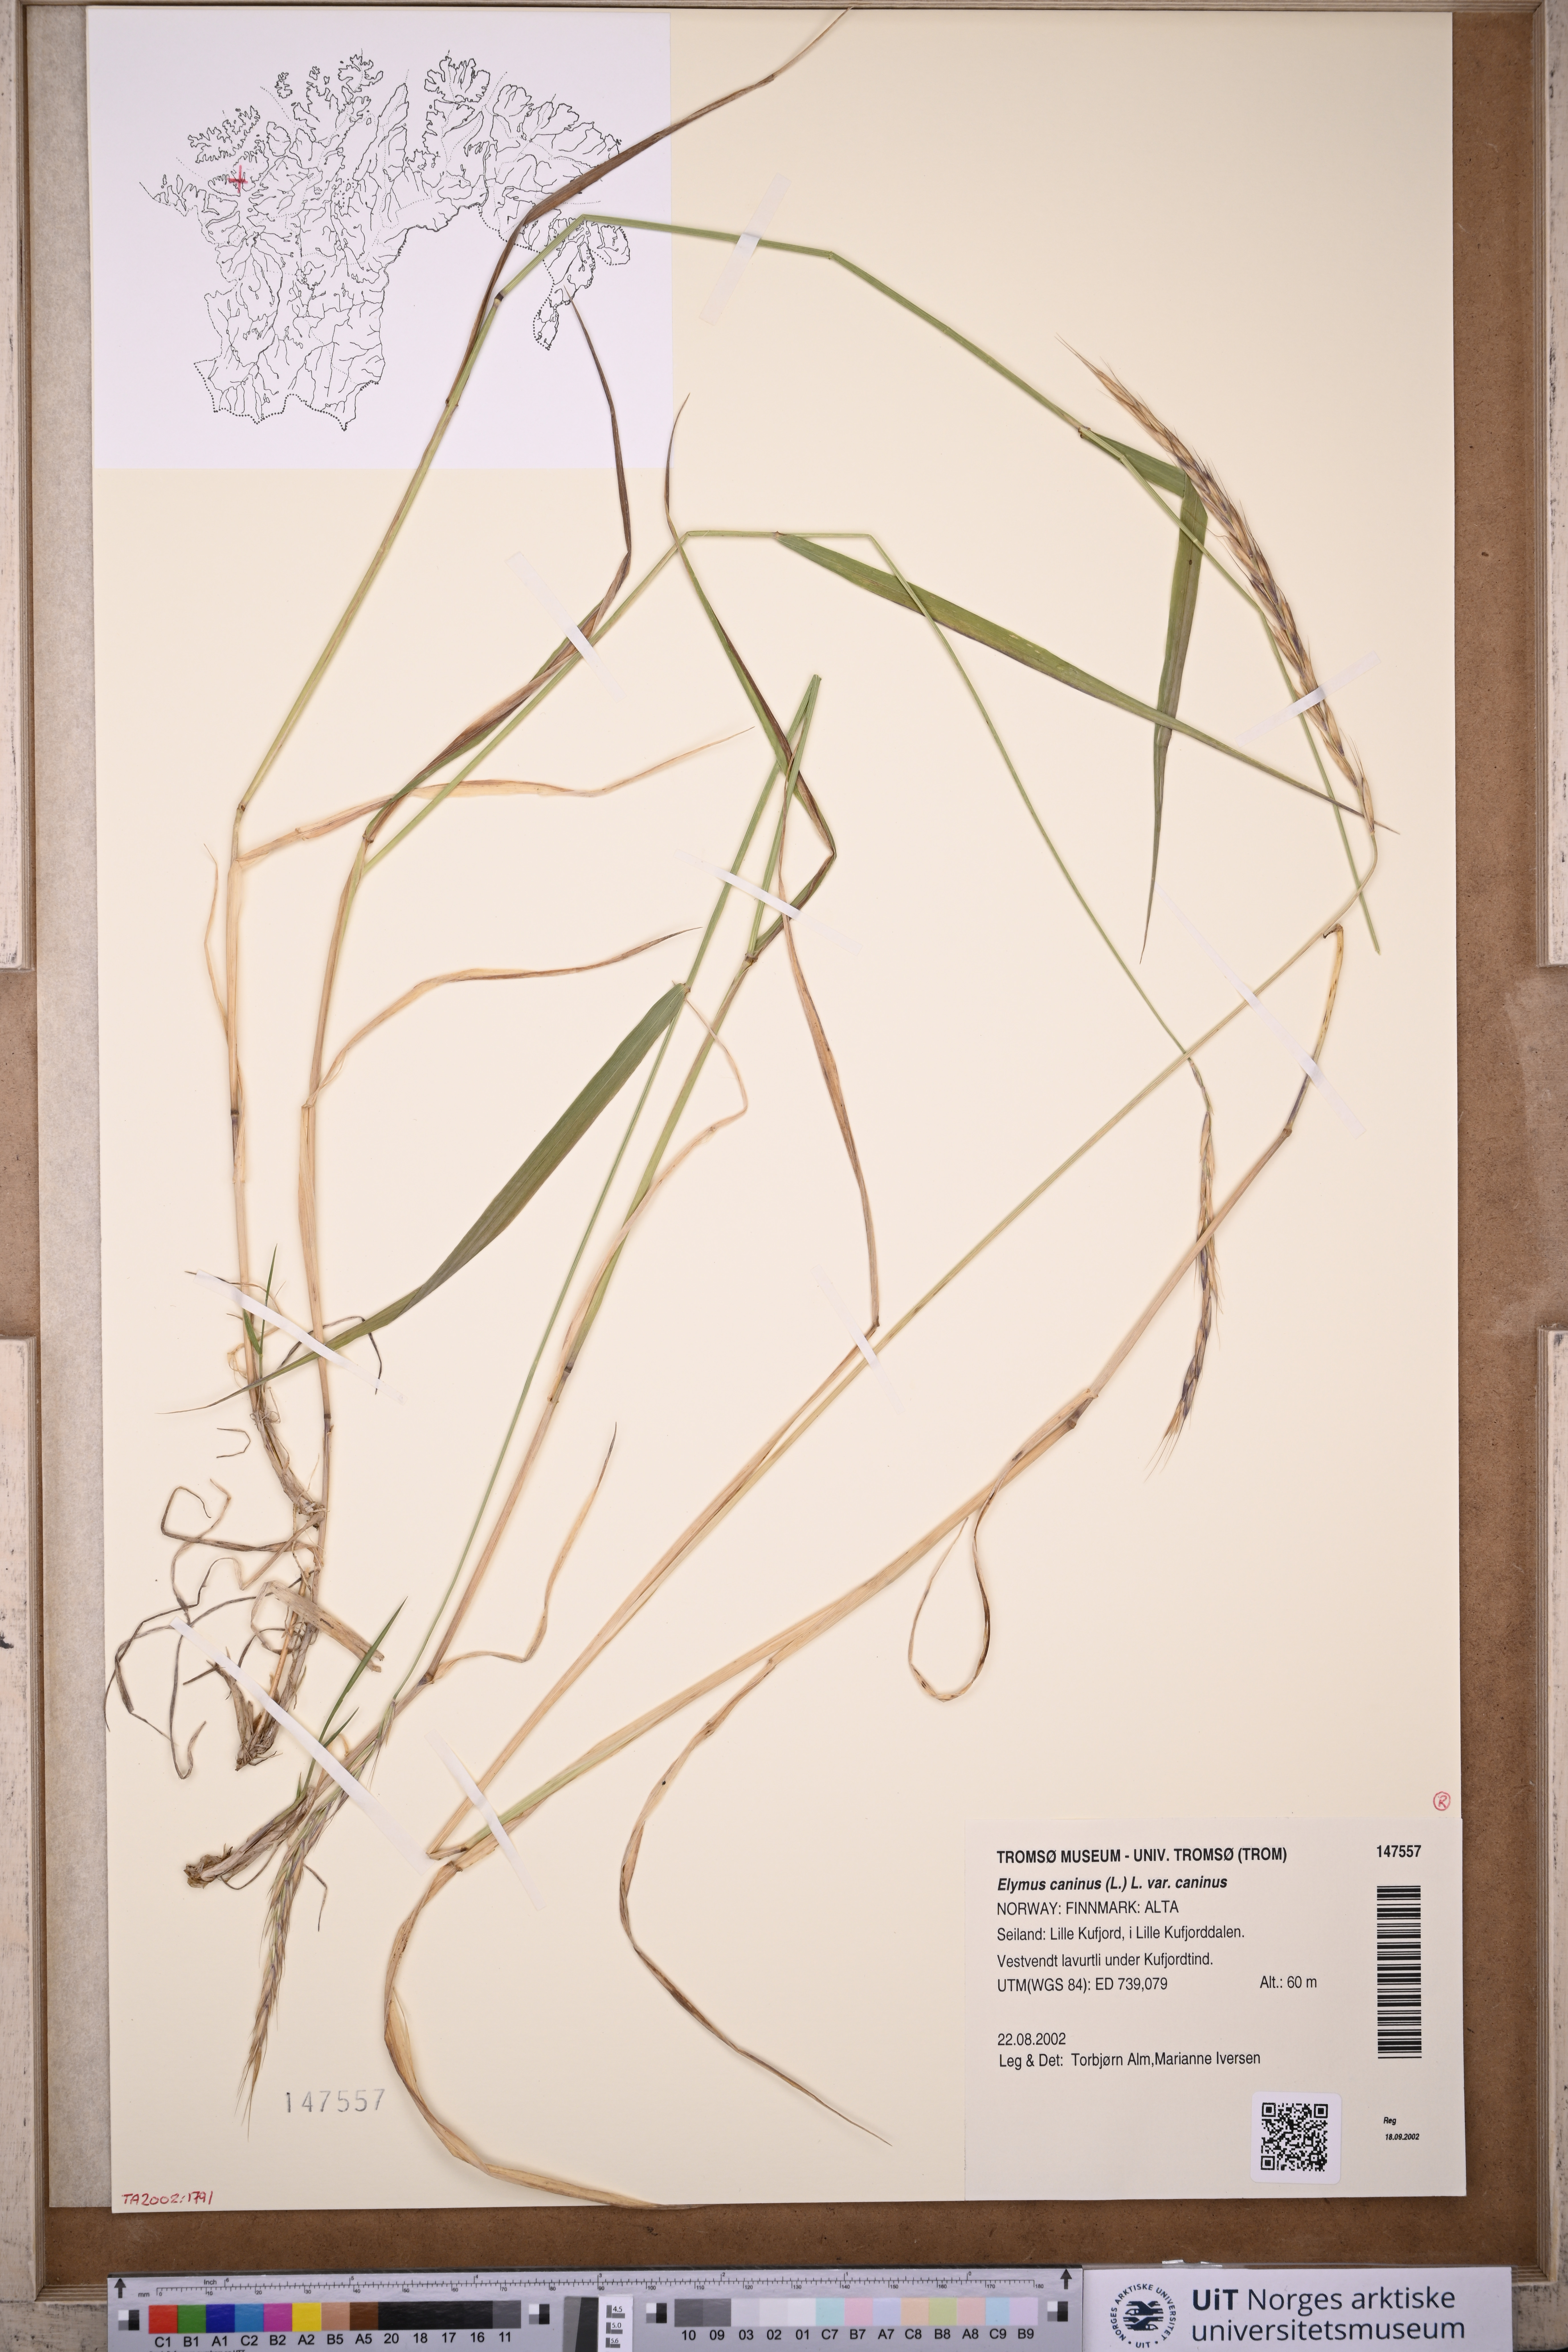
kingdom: Plantae
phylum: Tracheophyta
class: Liliopsida
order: Poales
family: Poaceae
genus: Elymus
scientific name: Elymus caninus
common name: Bearded couch
